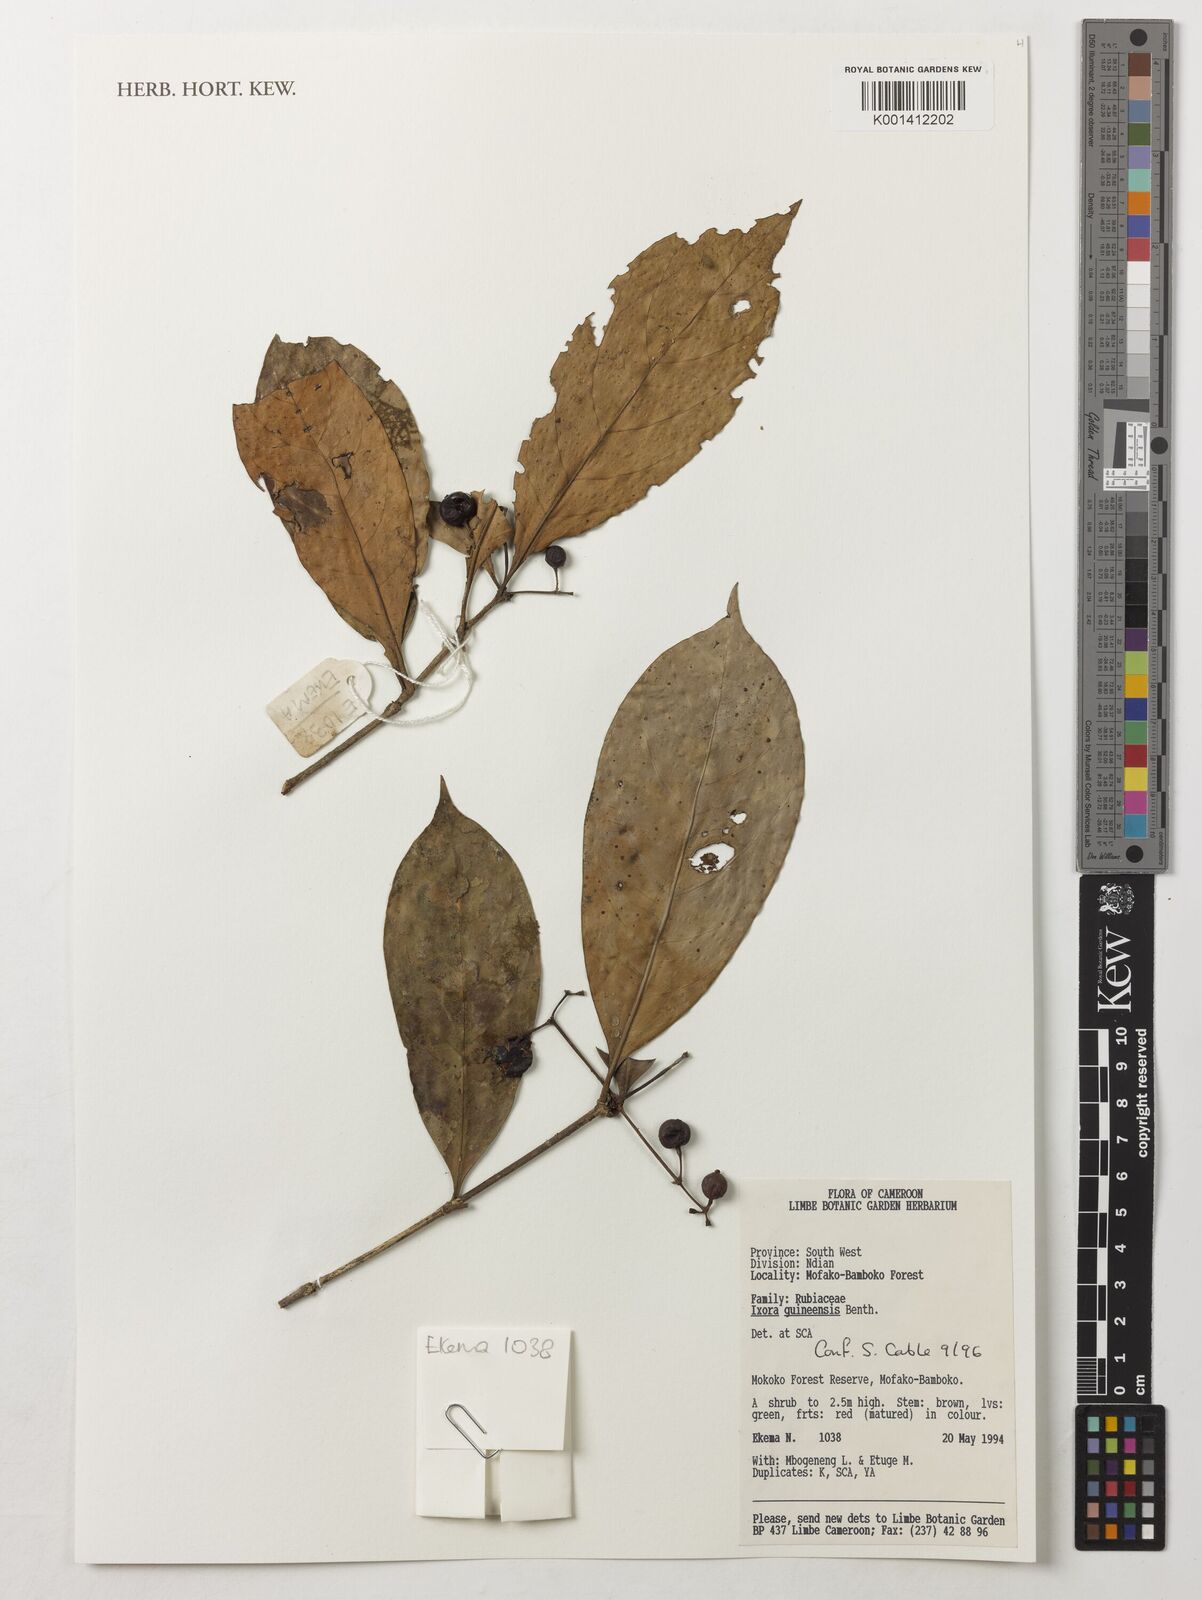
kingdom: Plantae
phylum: Tracheophyta
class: Magnoliopsida
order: Gentianales
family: Rubiaceae
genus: Ixora
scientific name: Ixora guineensis
